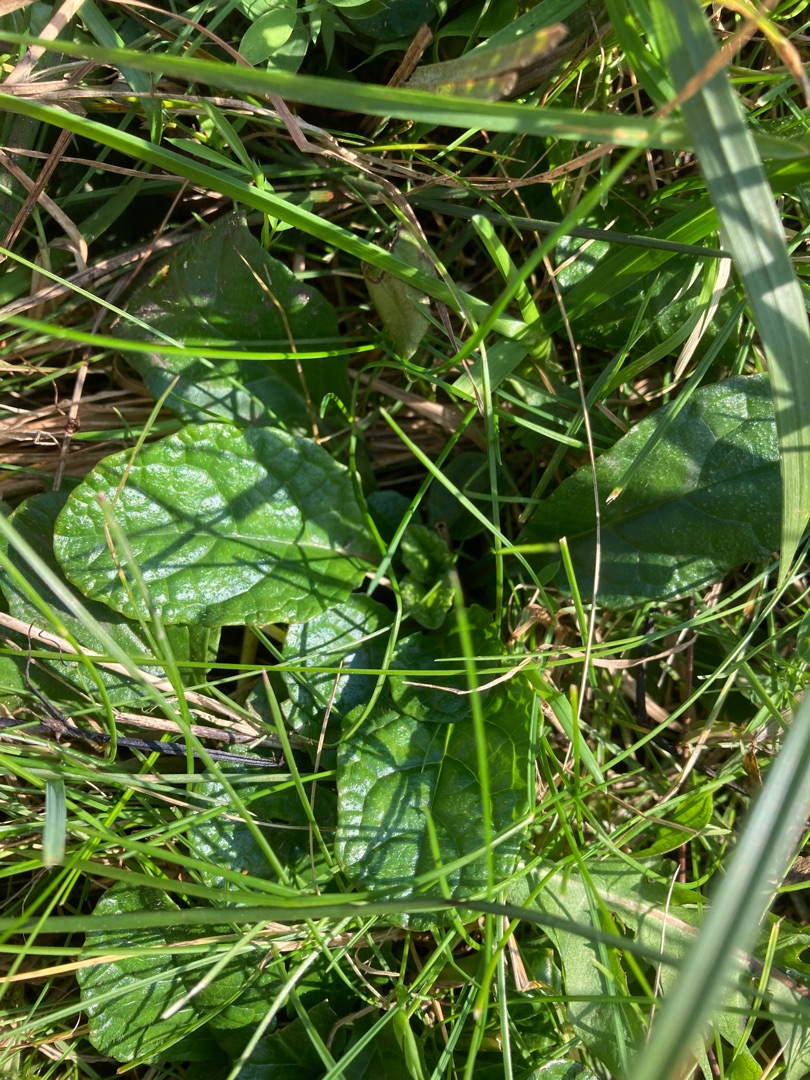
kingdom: Plantae
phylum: Tracheophyta
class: Magnoliopsida
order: Lamiales
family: Lamiaceae
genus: Ajuga
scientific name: Ajuga reptans
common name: Krybende læbeløs
